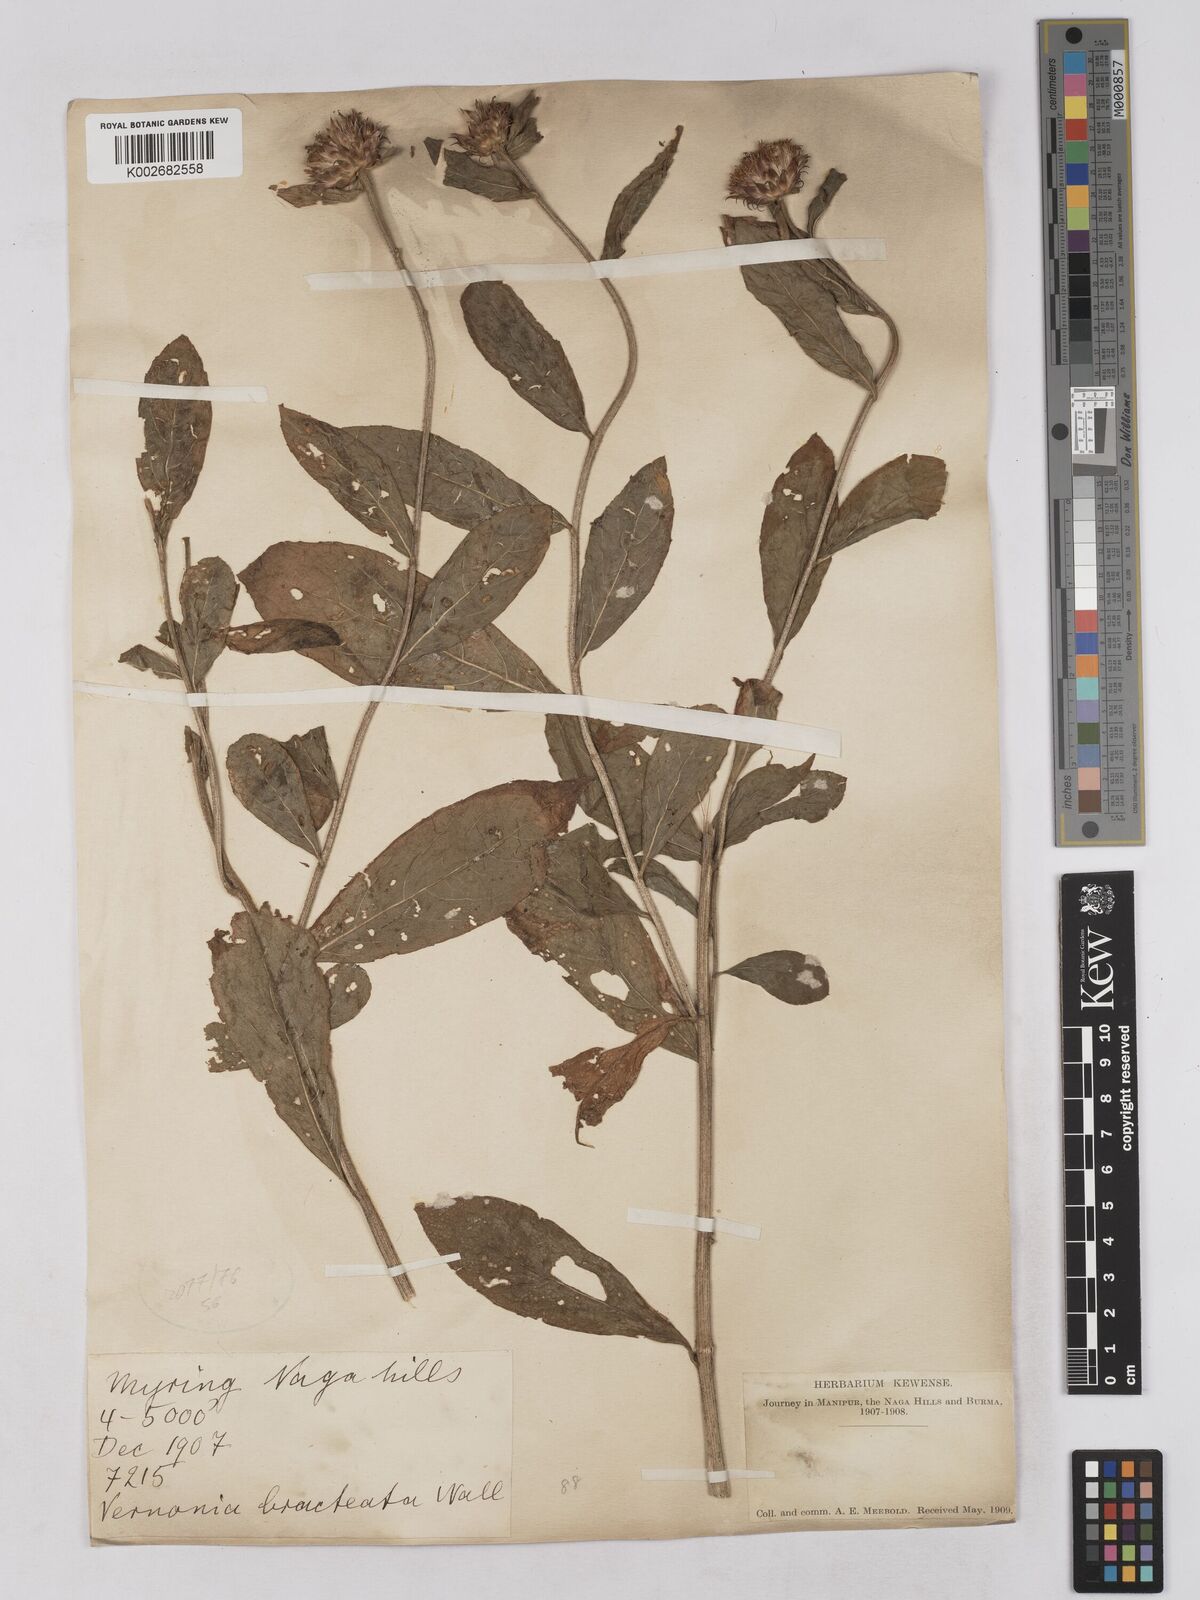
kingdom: Plantae
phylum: Tracheophyta
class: Magnoliopsida
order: Asterales
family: Asteraceae
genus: Acilepis
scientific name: Acilepis silhetensis
